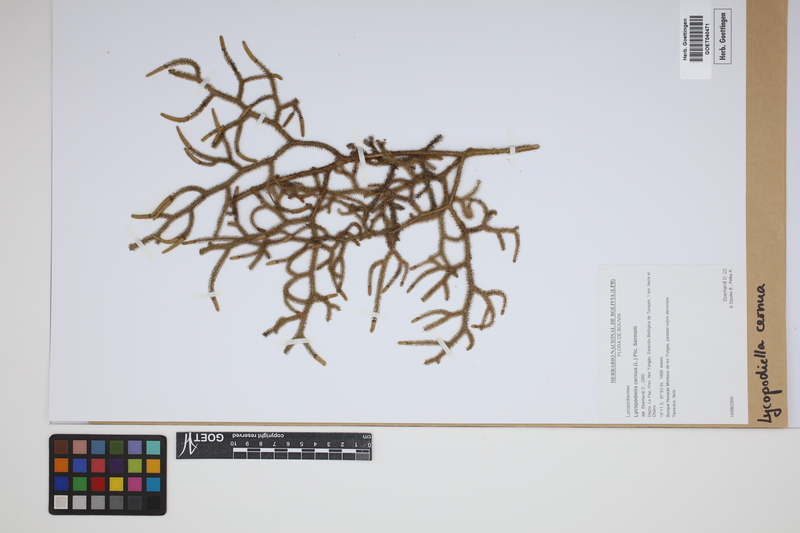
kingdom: Plantae
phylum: Tracheophyta
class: Lycopodiopsida
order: Lycopodiales
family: Lycopodiaceae
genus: Palhinhaea
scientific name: Palhinhaea cernua
